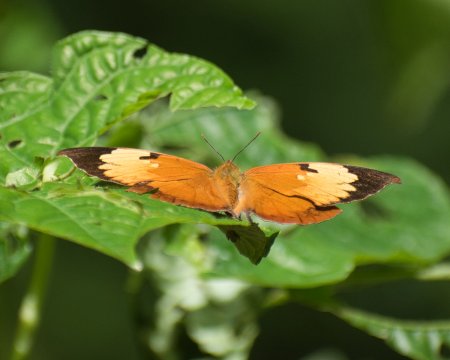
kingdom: Animalia
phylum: Arthropoda
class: Insecta
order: Lepidoptera
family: Nymphalidae
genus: Zaretis
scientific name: Zaretis itys
